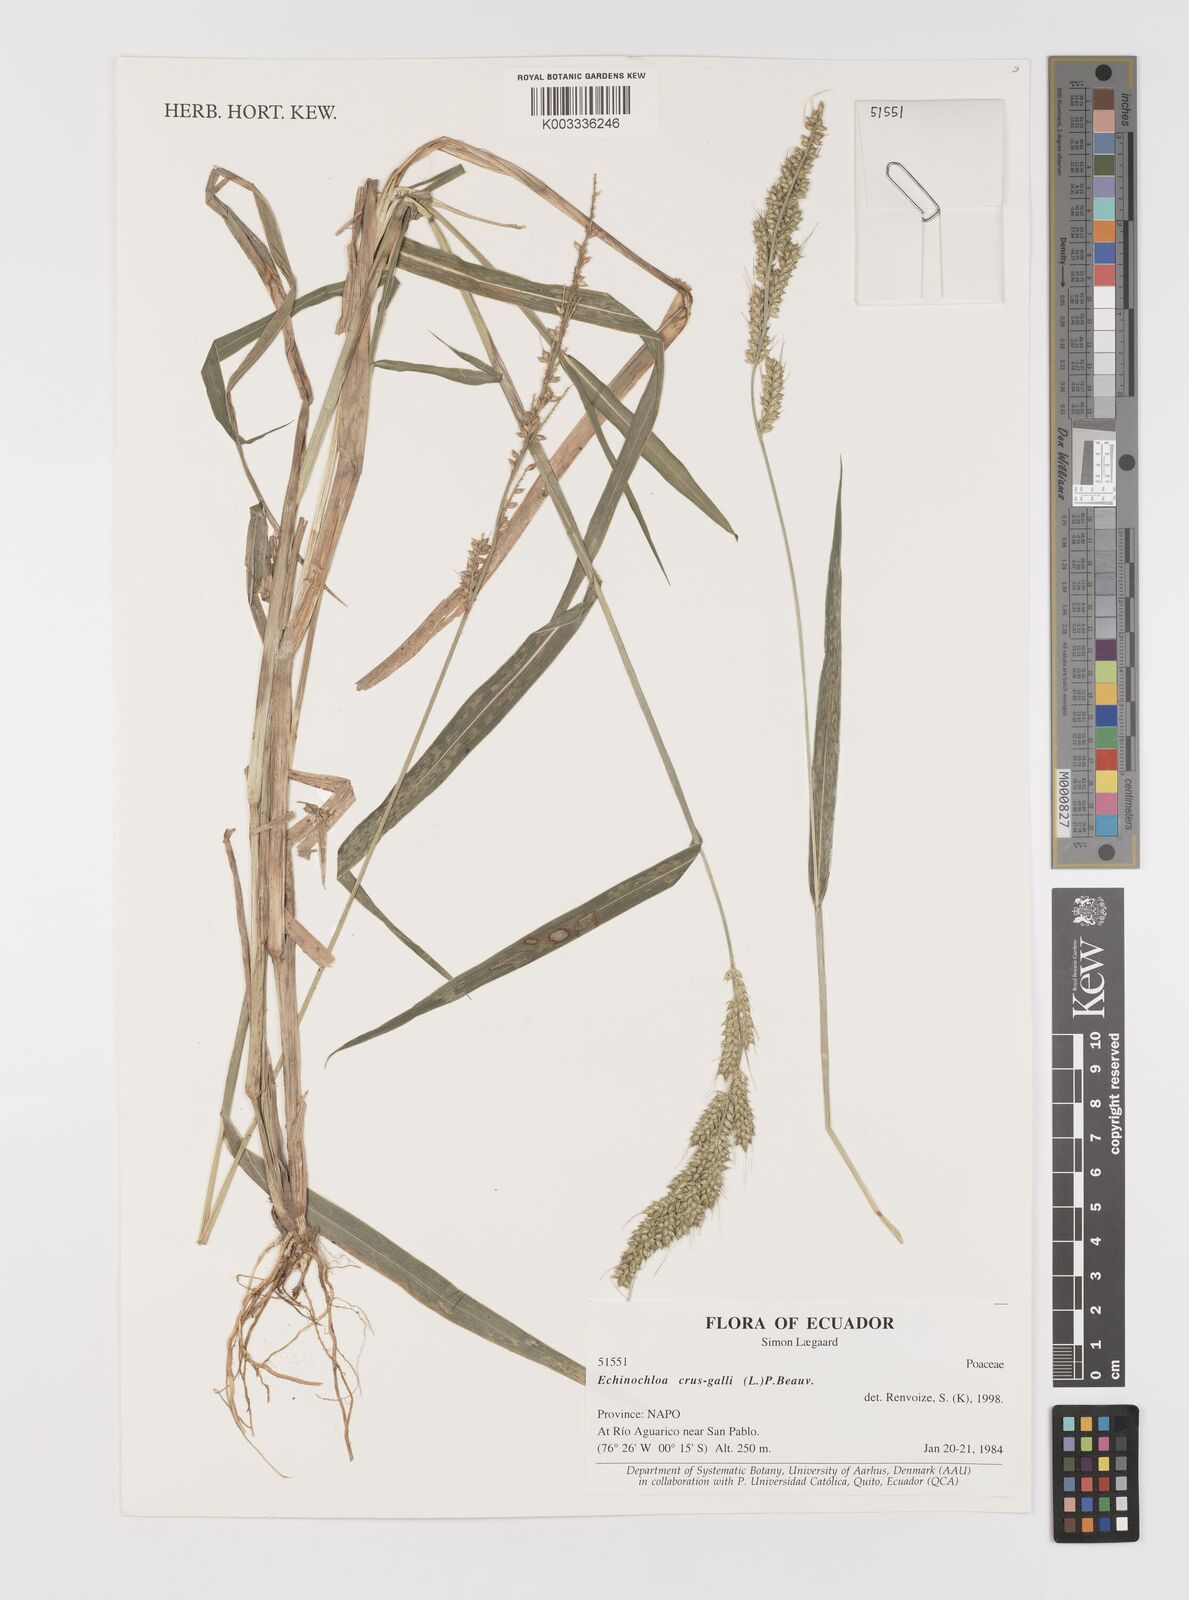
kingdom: Plantae
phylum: Tracheophyta
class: Liliopsida
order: Poales
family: Poaceae
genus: Echinochloa
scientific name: Echinochloa crus-galli
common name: Cockspur
